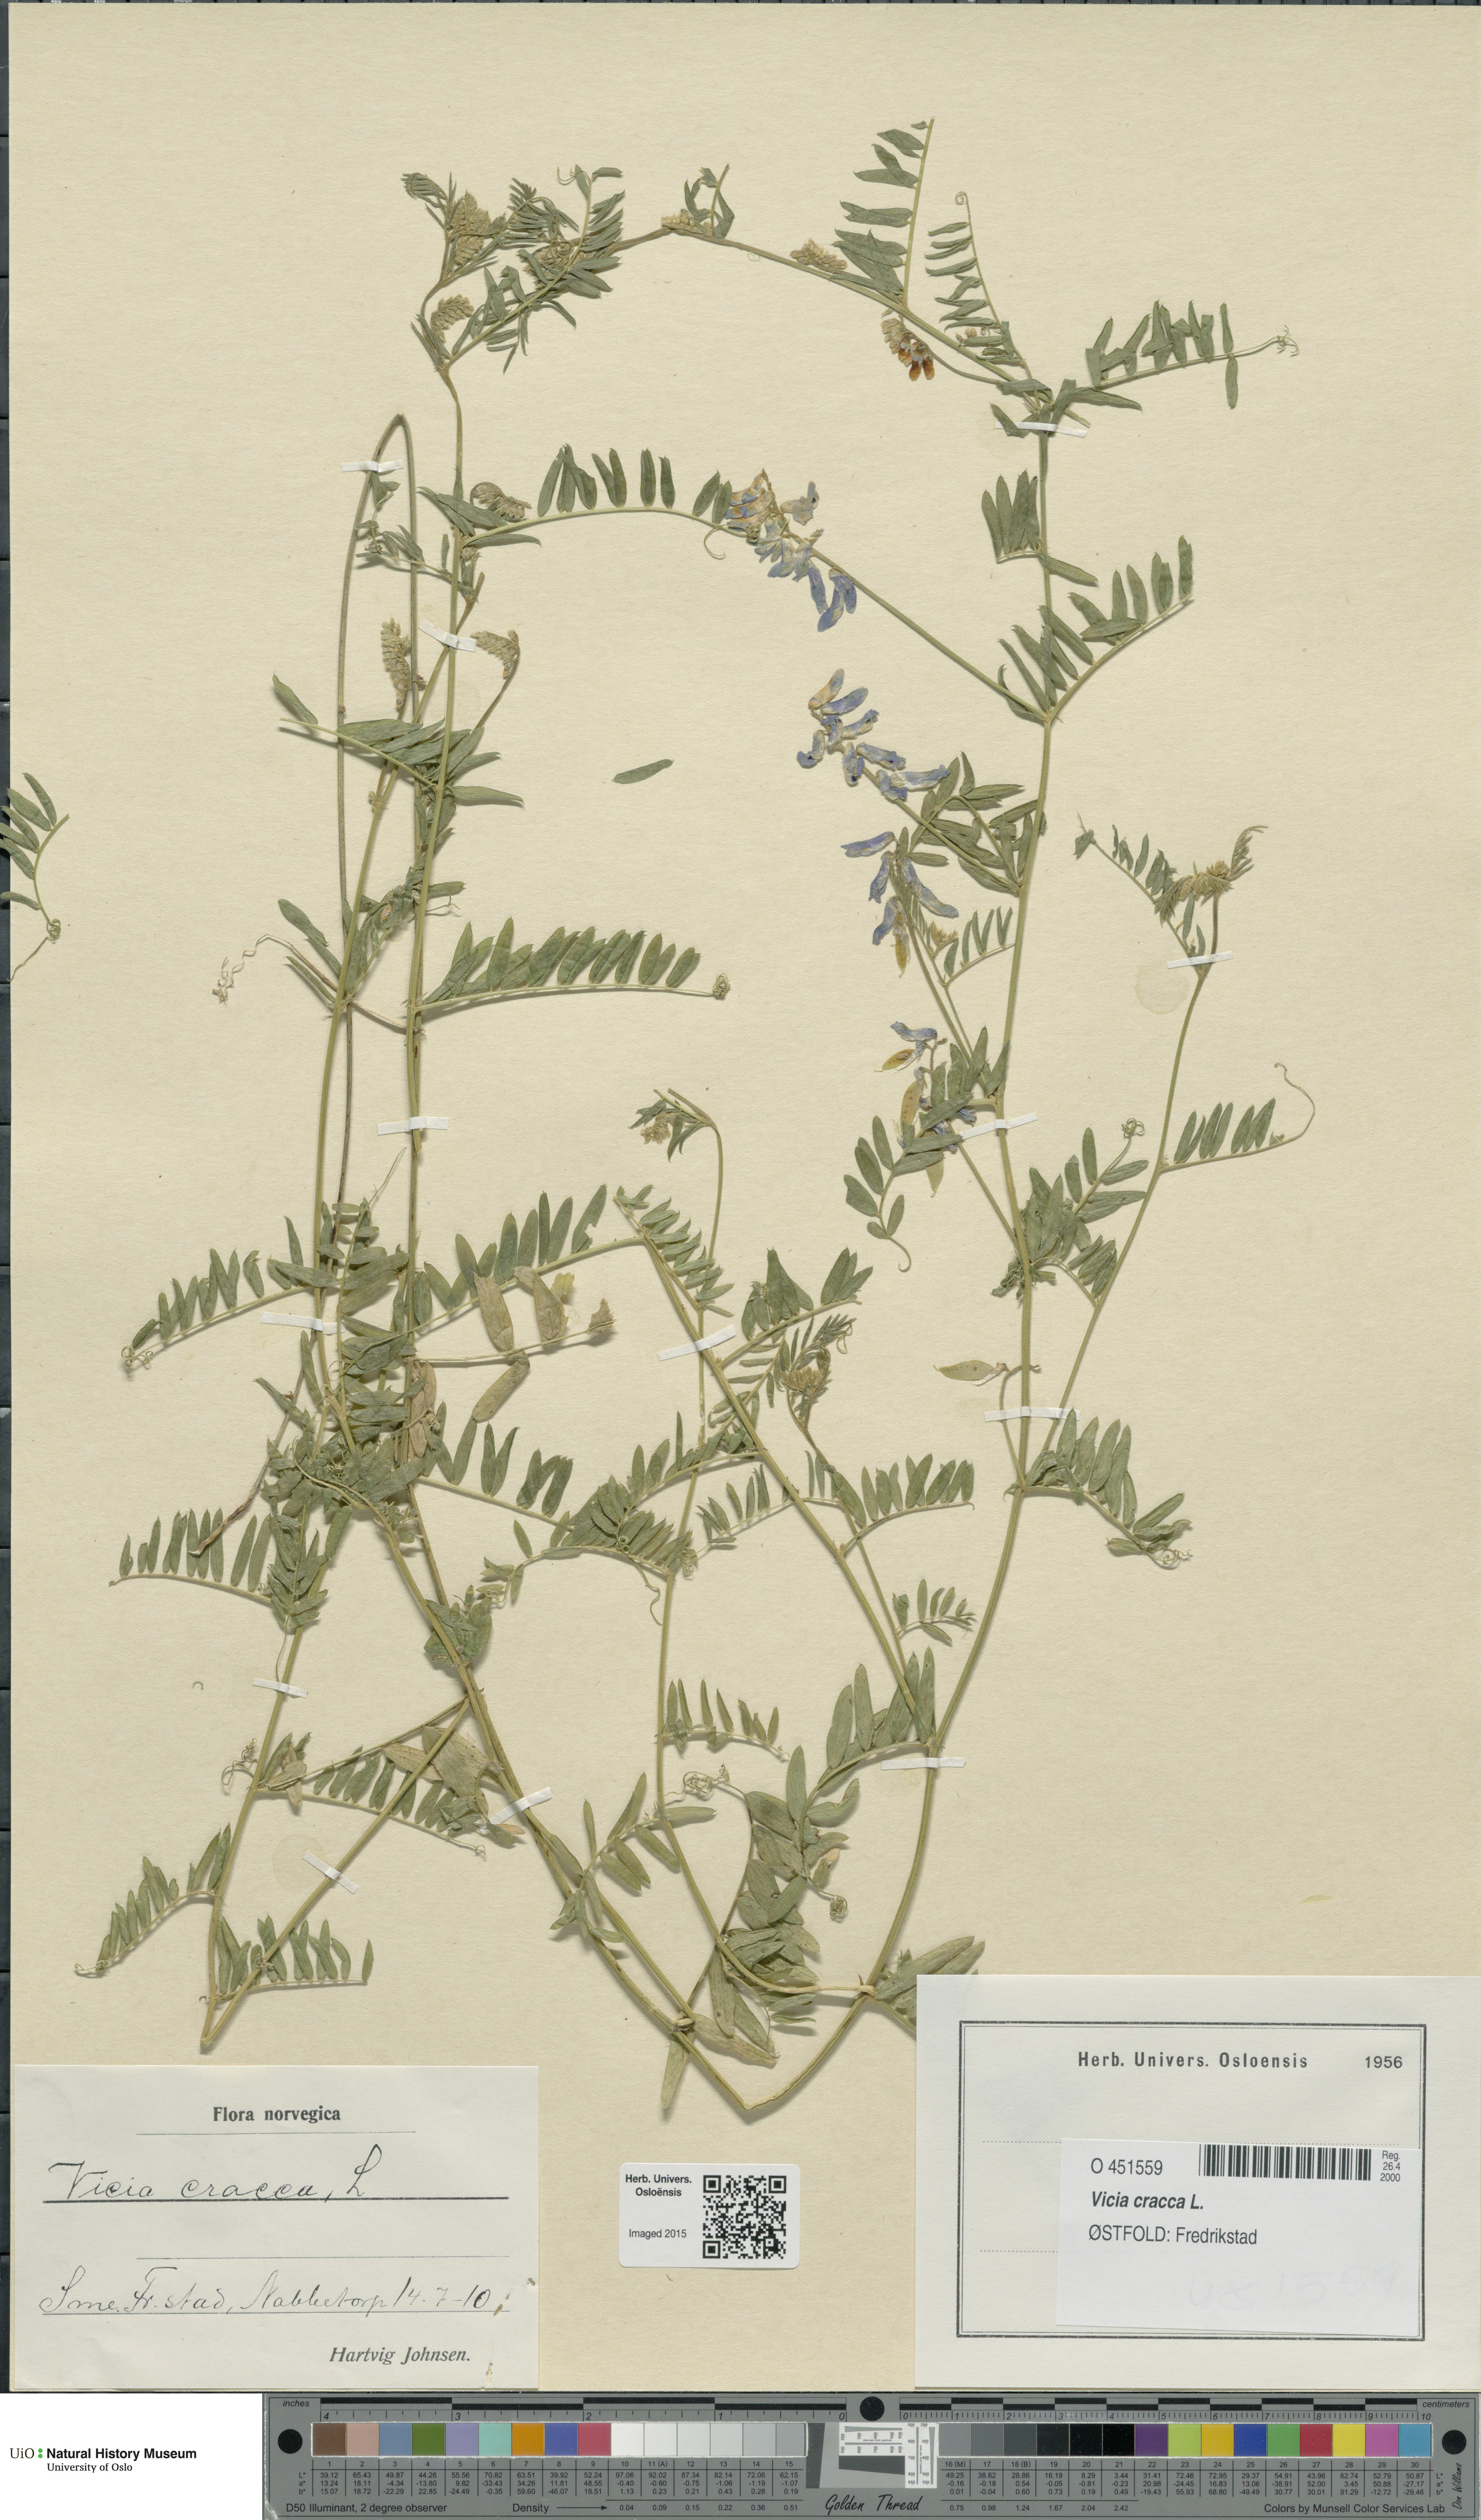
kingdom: Plantae
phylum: Tracheophyta
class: Magnoliopsida
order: Fabales
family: Fabaceae
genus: Vicia
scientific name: Vicia cracca
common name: Bird vetch
